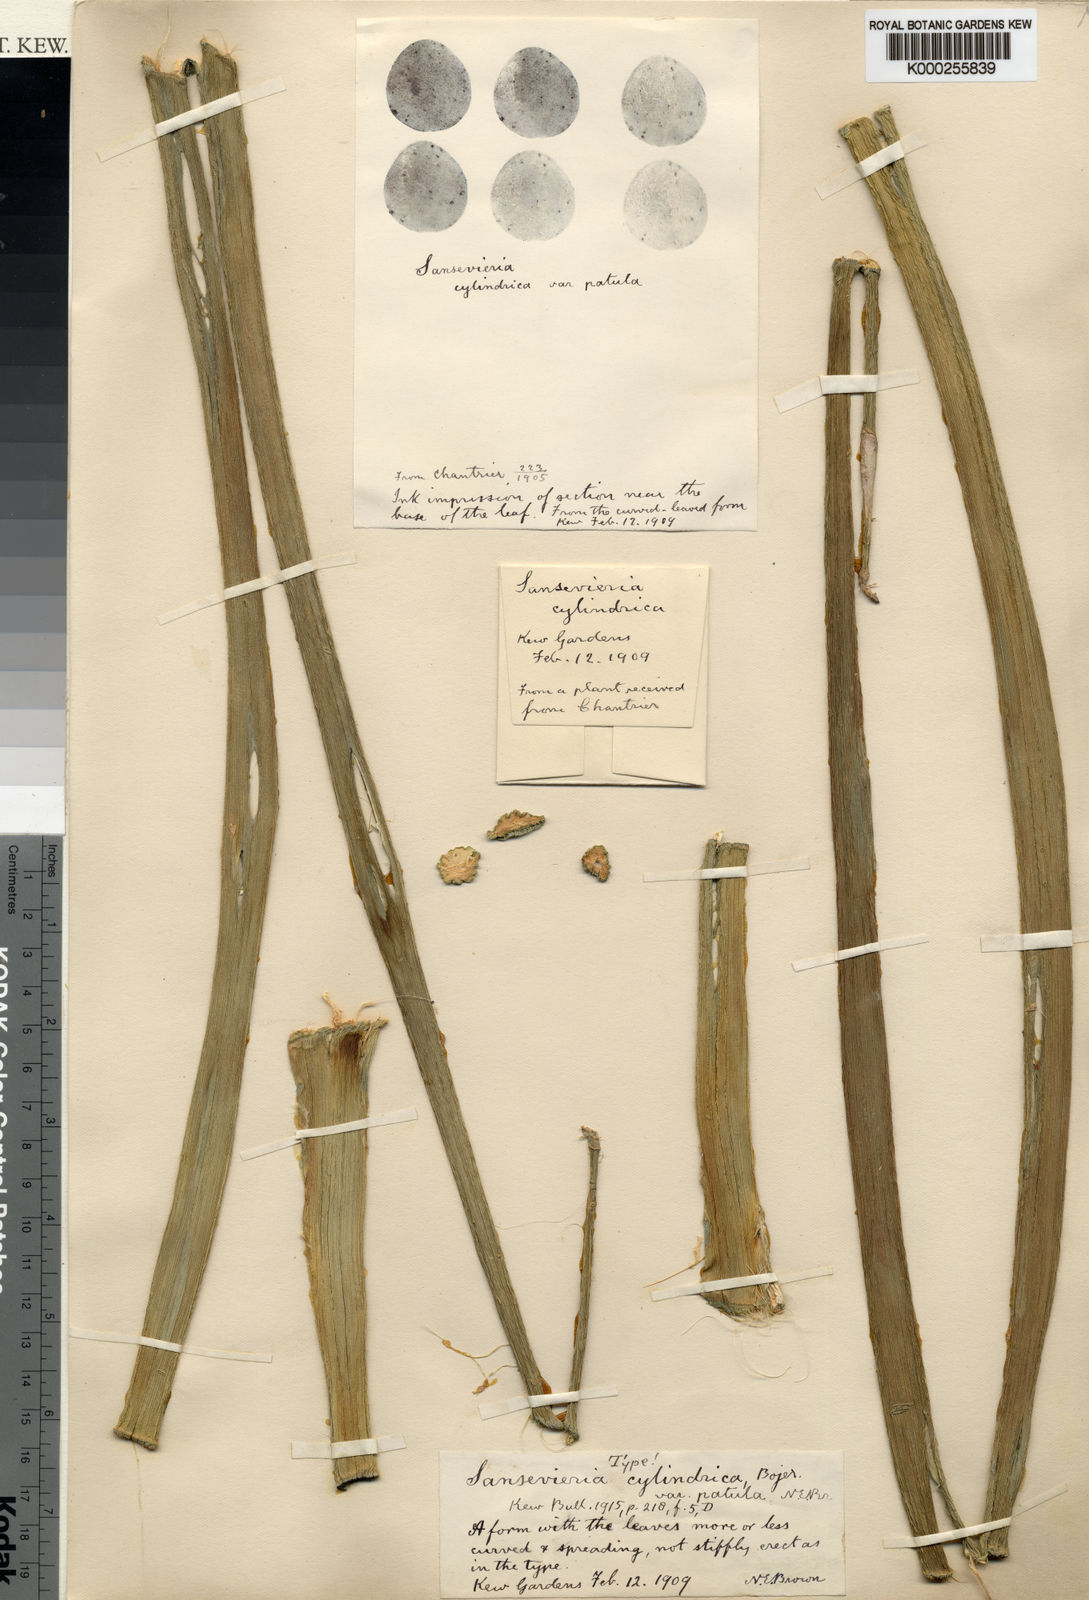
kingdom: Plantae
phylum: Tracheophyta
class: Liliopsida
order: Asparagales
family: Asparagaceae
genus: Dracaena
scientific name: Dracaena angolensis
